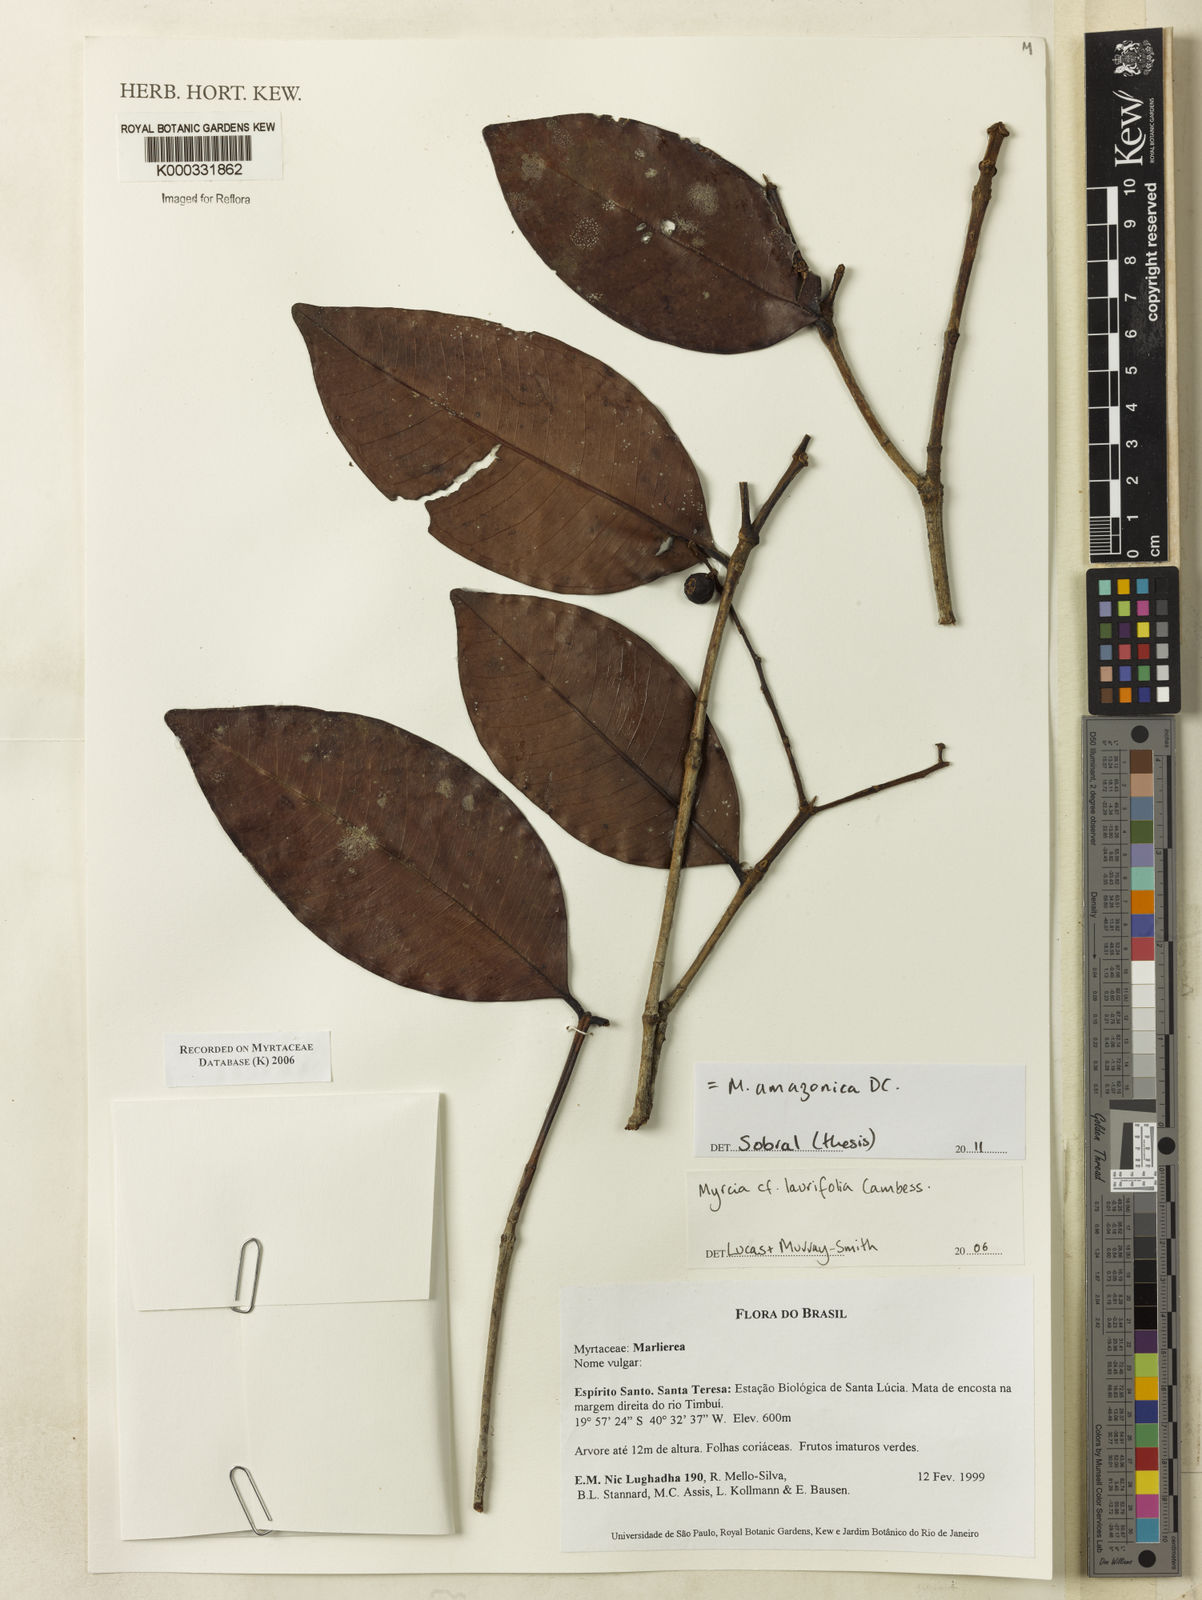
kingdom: Plantae
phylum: Tracheophyta
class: Magnoliopsida
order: Myrtales
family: Myrtaceae
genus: Myrcia
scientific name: Myrcia laurifolia
